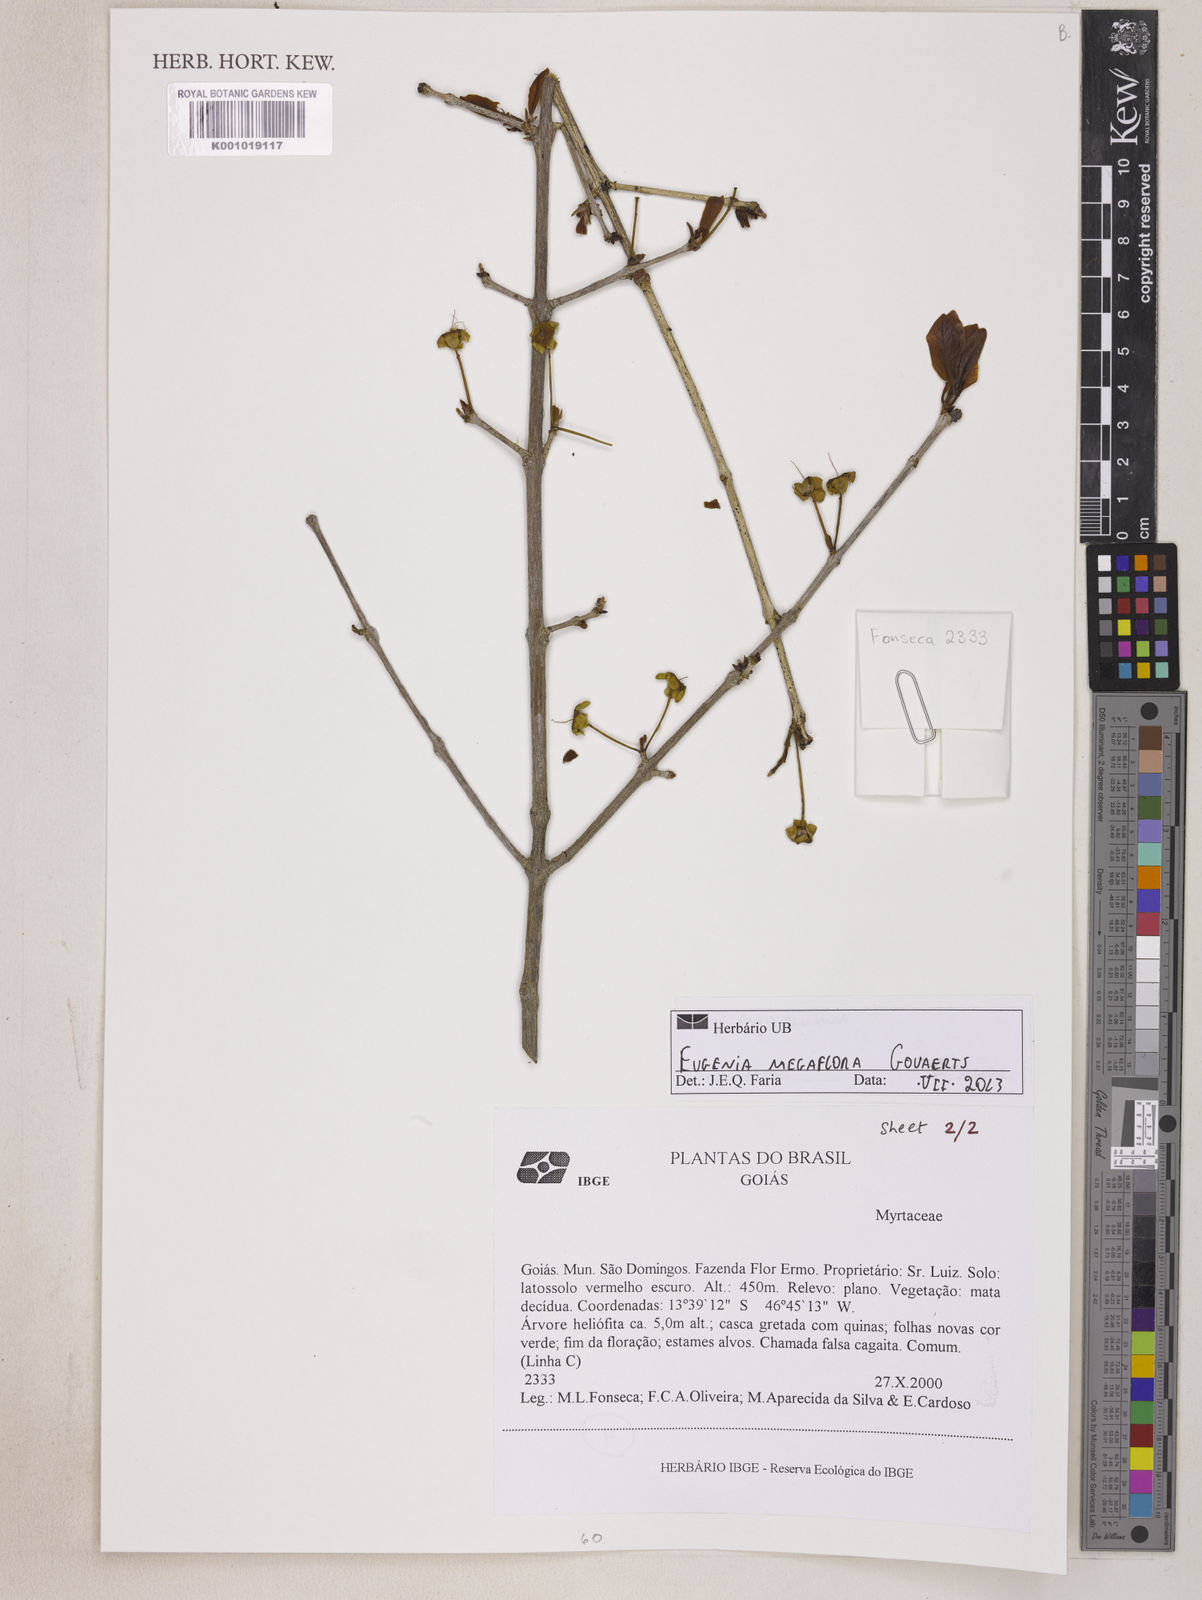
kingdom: Plantae
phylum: Tracheophyta
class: Magnoliopsida
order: Myrtales
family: Myrtaceae
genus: Eugenia
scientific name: Eugenia megaflora
